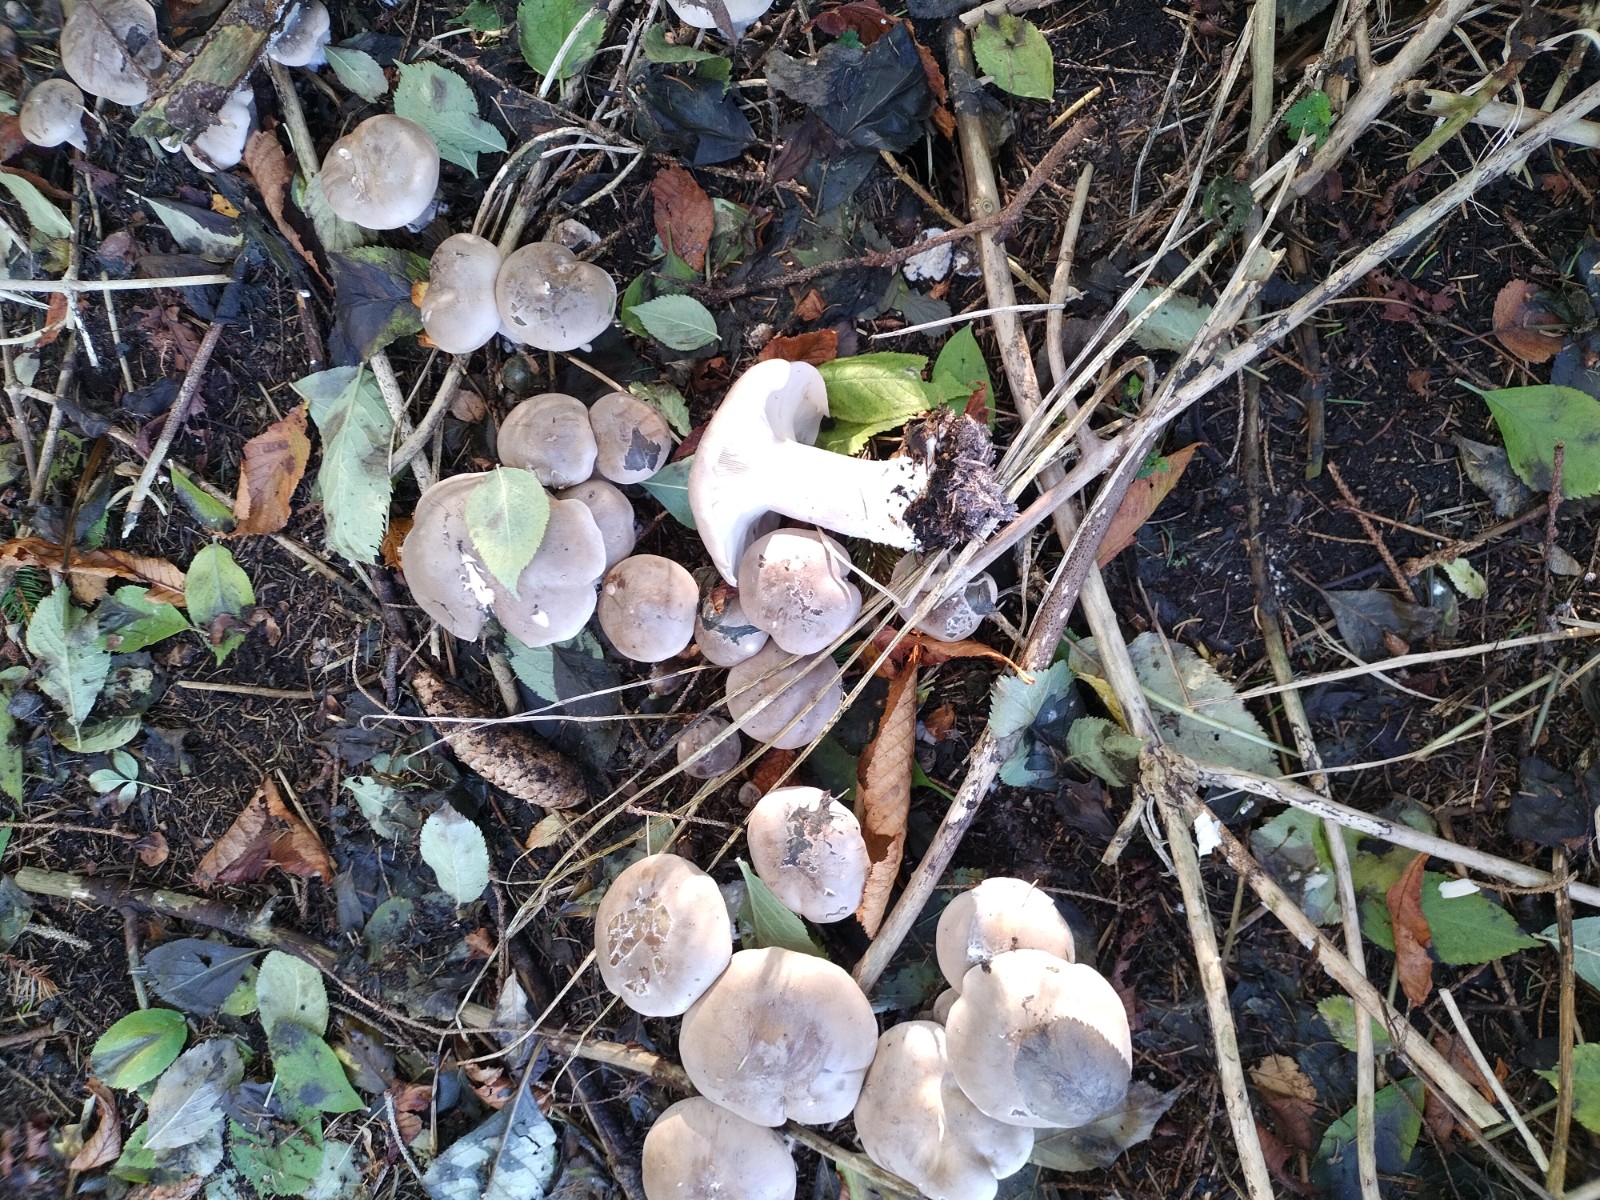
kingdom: Fungi
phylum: Basidiomycota
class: Agaricomycetes
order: Agaricales
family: Tricholomataceae
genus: Clitocybe
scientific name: Clitocybe nebularis
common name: tåge-tragthat
